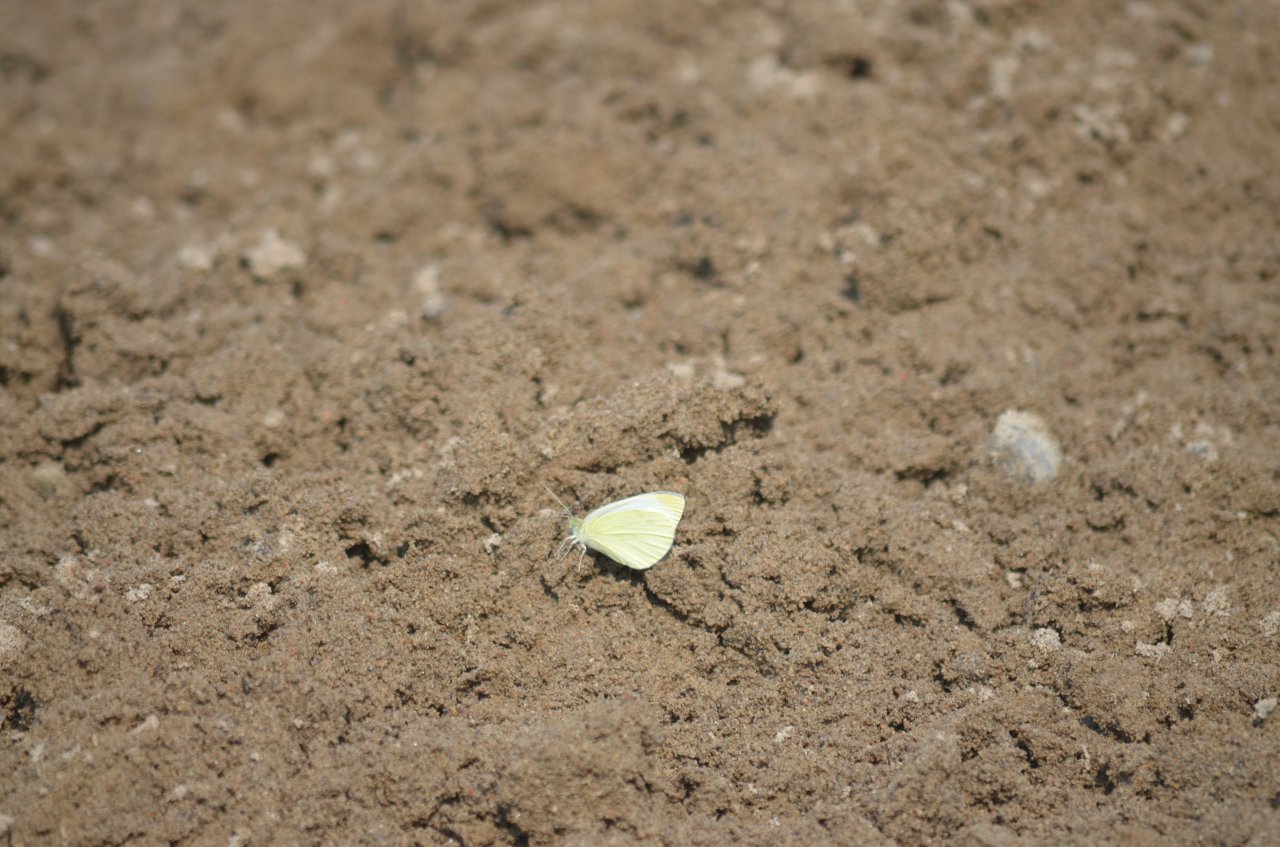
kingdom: Animalia
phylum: Arthropoda
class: Insecta
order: Lepidoptera
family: Pieridae
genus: Colias
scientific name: Colias philodice
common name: Clouded Sulphur
